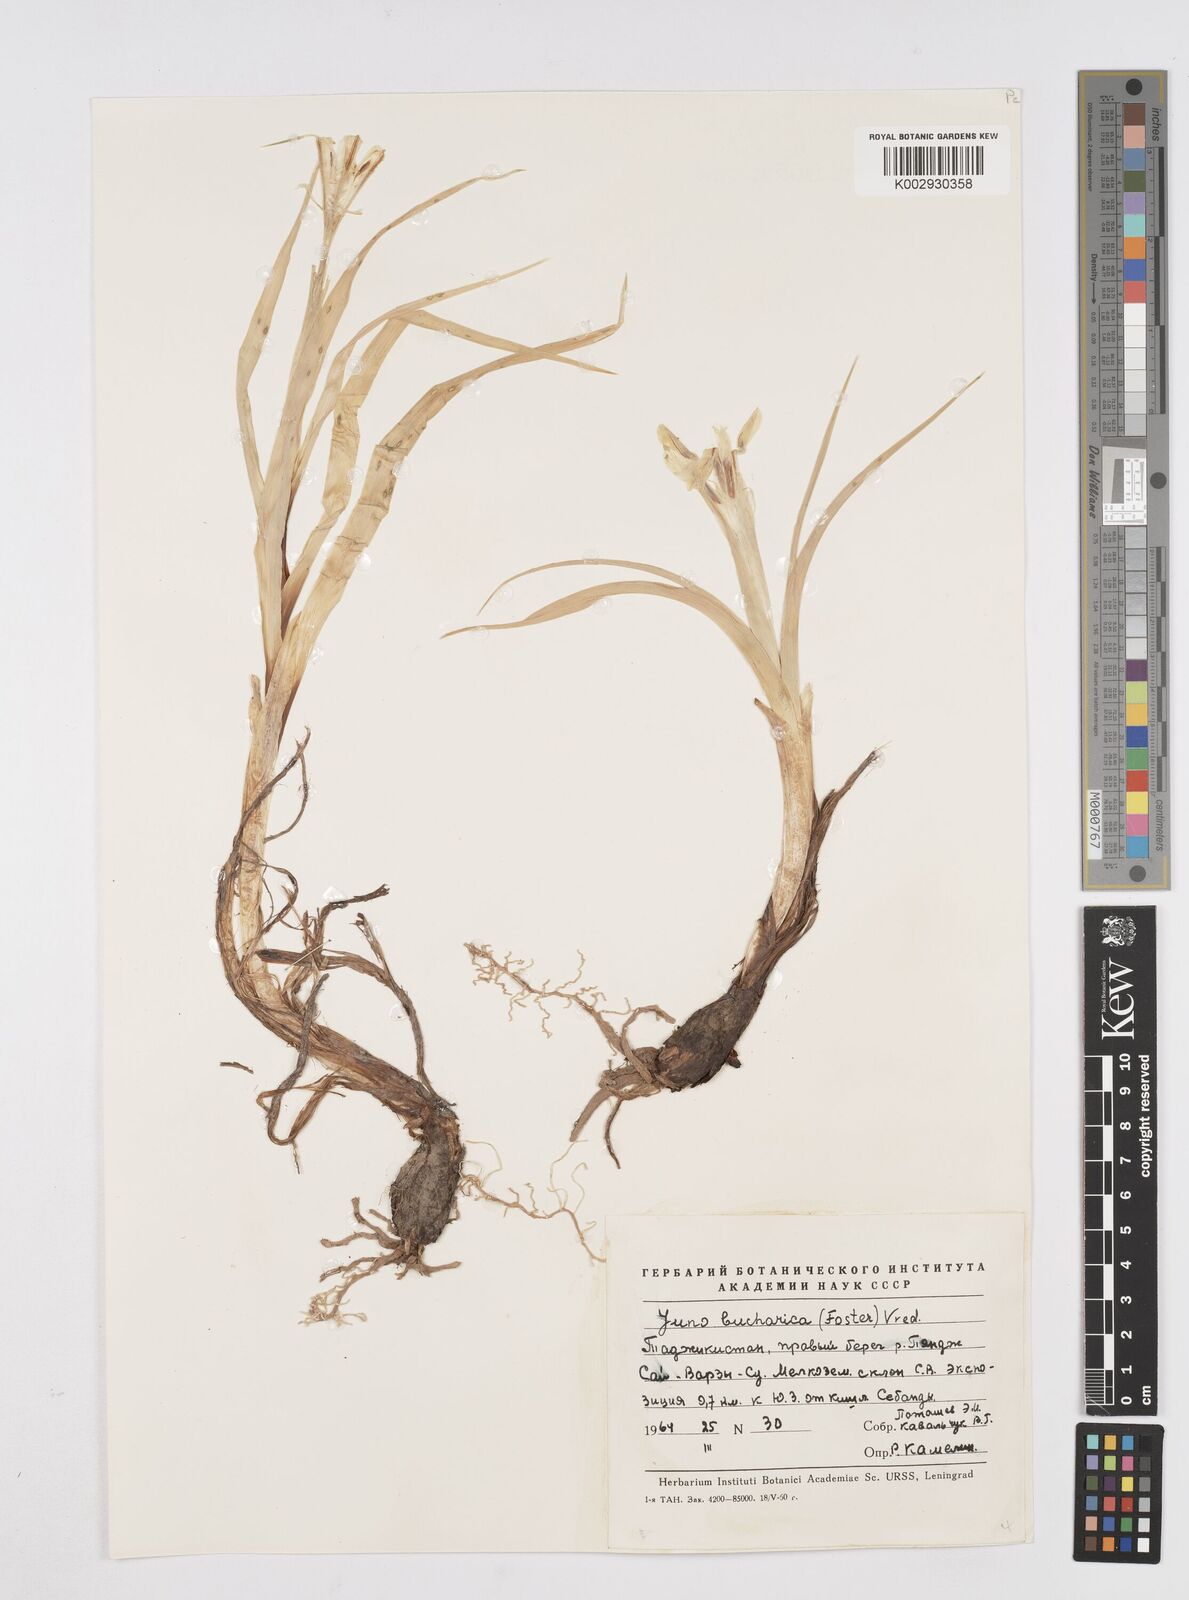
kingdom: Plantae
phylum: Tracheophyta
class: Liliopsida
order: Asparagales
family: Iridaceae
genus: Iris
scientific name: Iris bucharica
